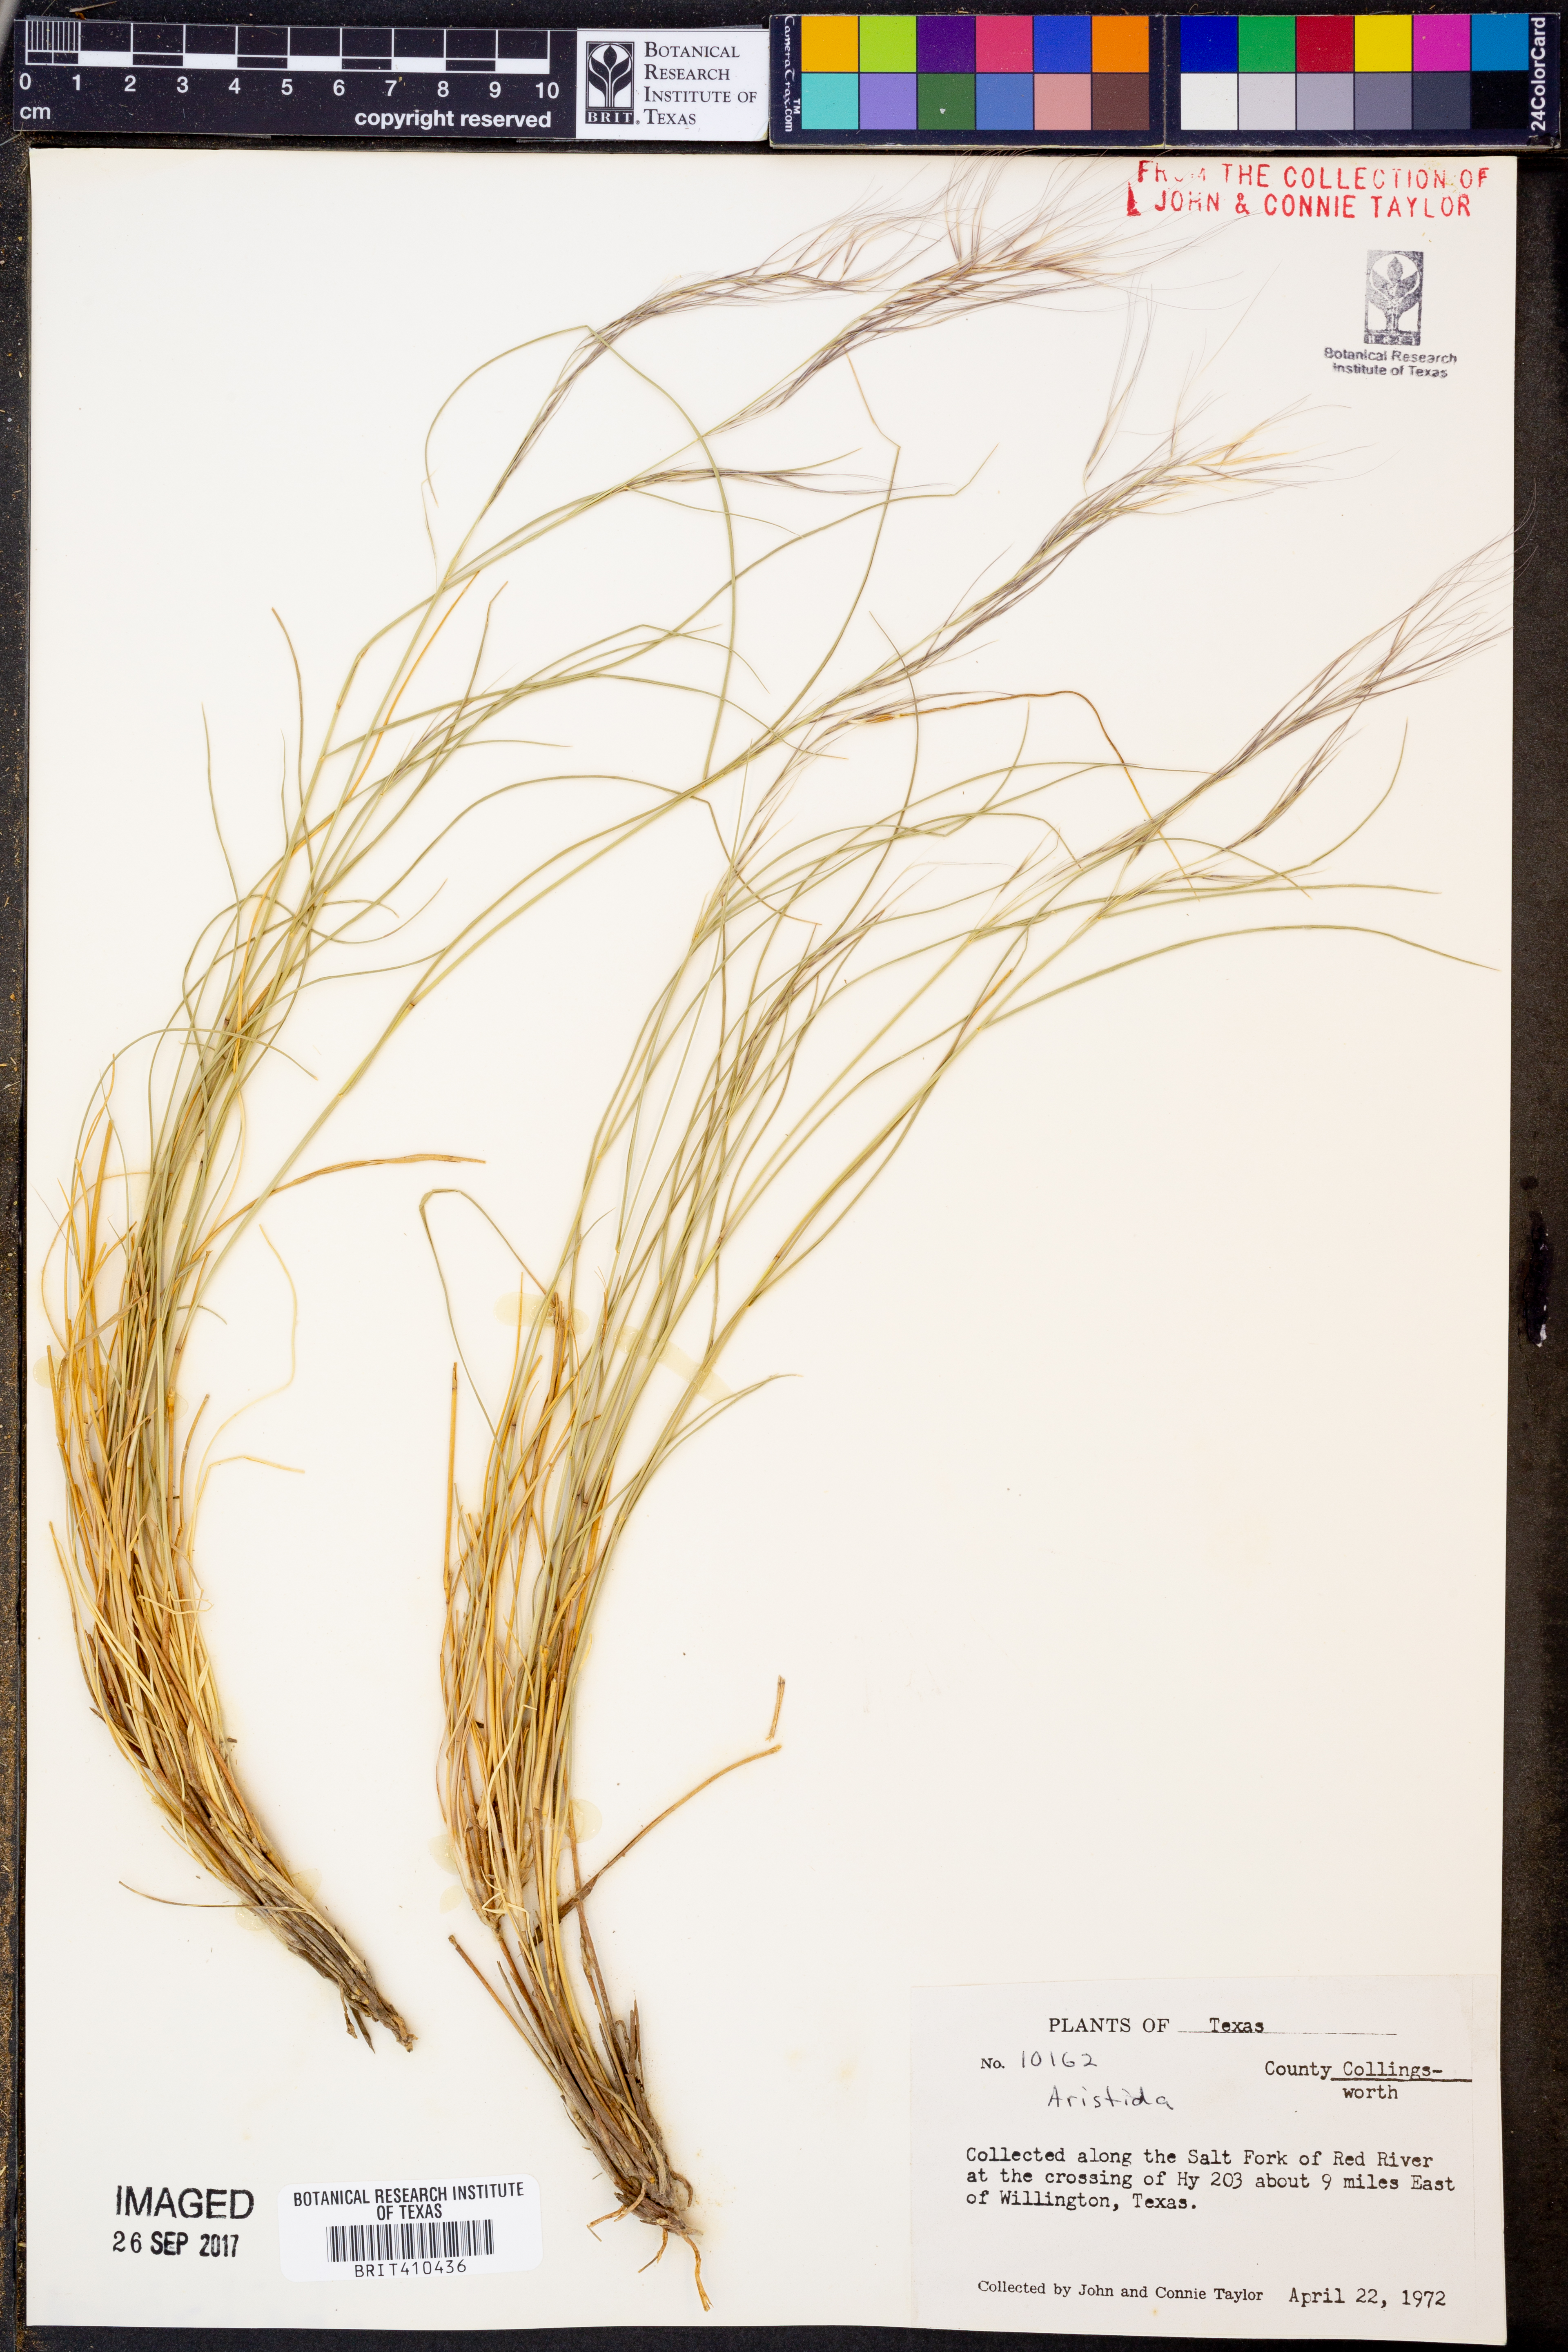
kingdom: Plantae
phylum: Tracheophyta
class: Liliopsida
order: Poales
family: Poaceae
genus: Aristida
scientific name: Aristida
